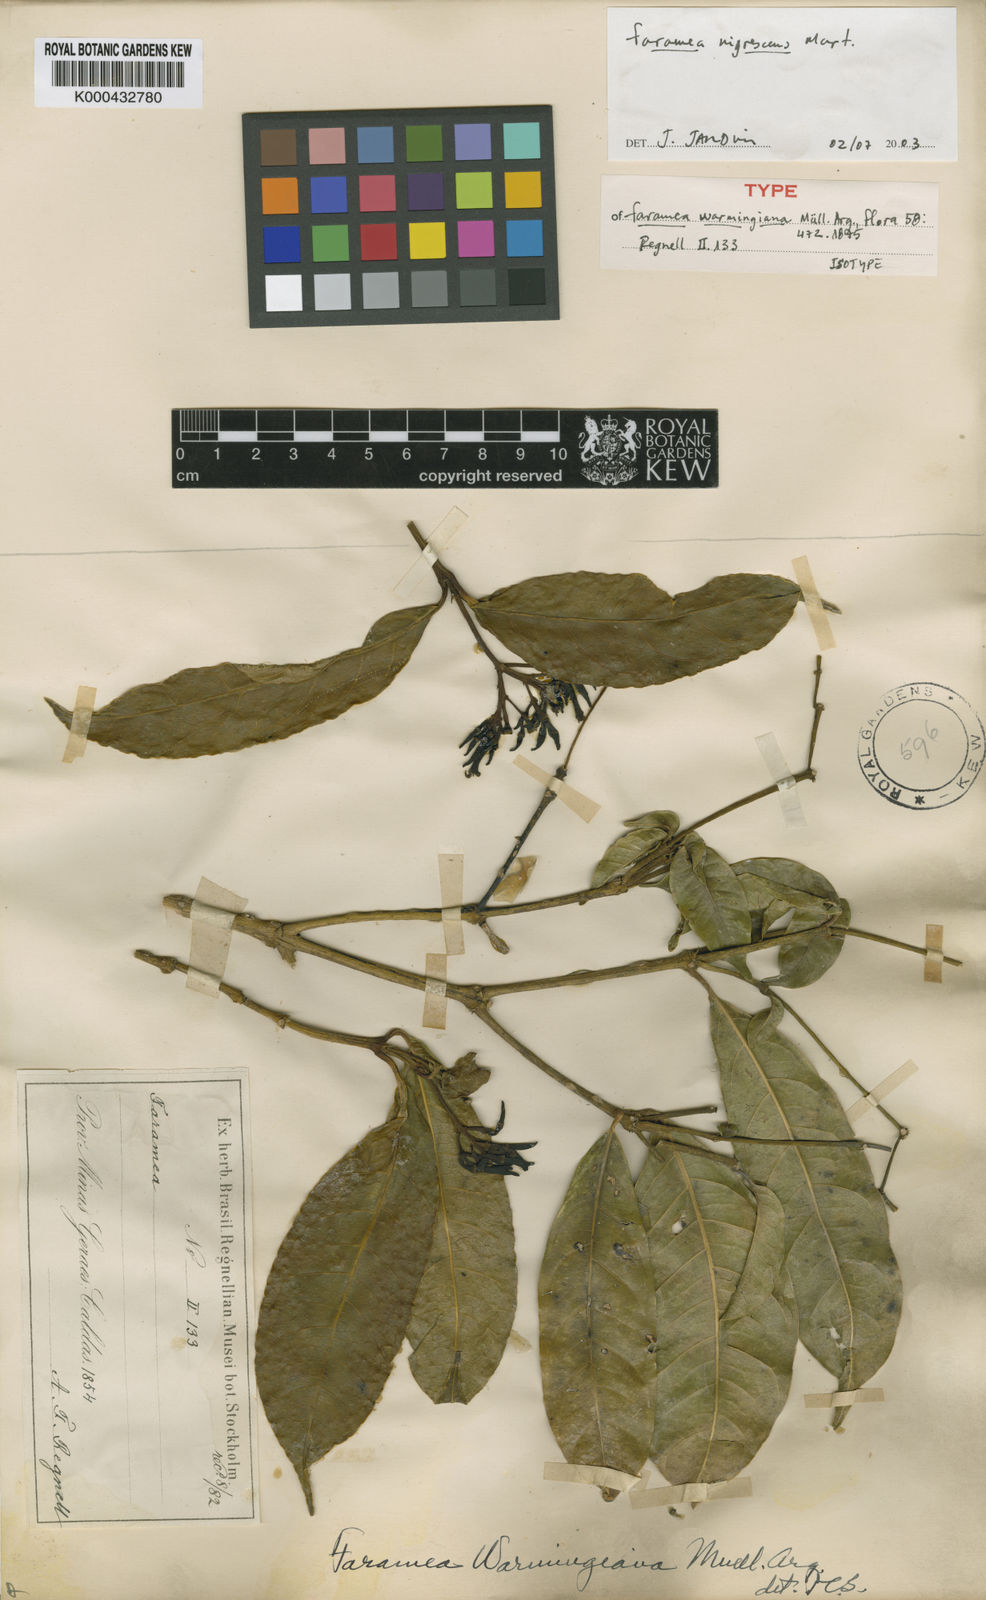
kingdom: Plantae
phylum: Tracheophyta
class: Magnoliopsida
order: Gentianales
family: Rubiaceae
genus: Faramea
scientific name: Faramea nigrescens
